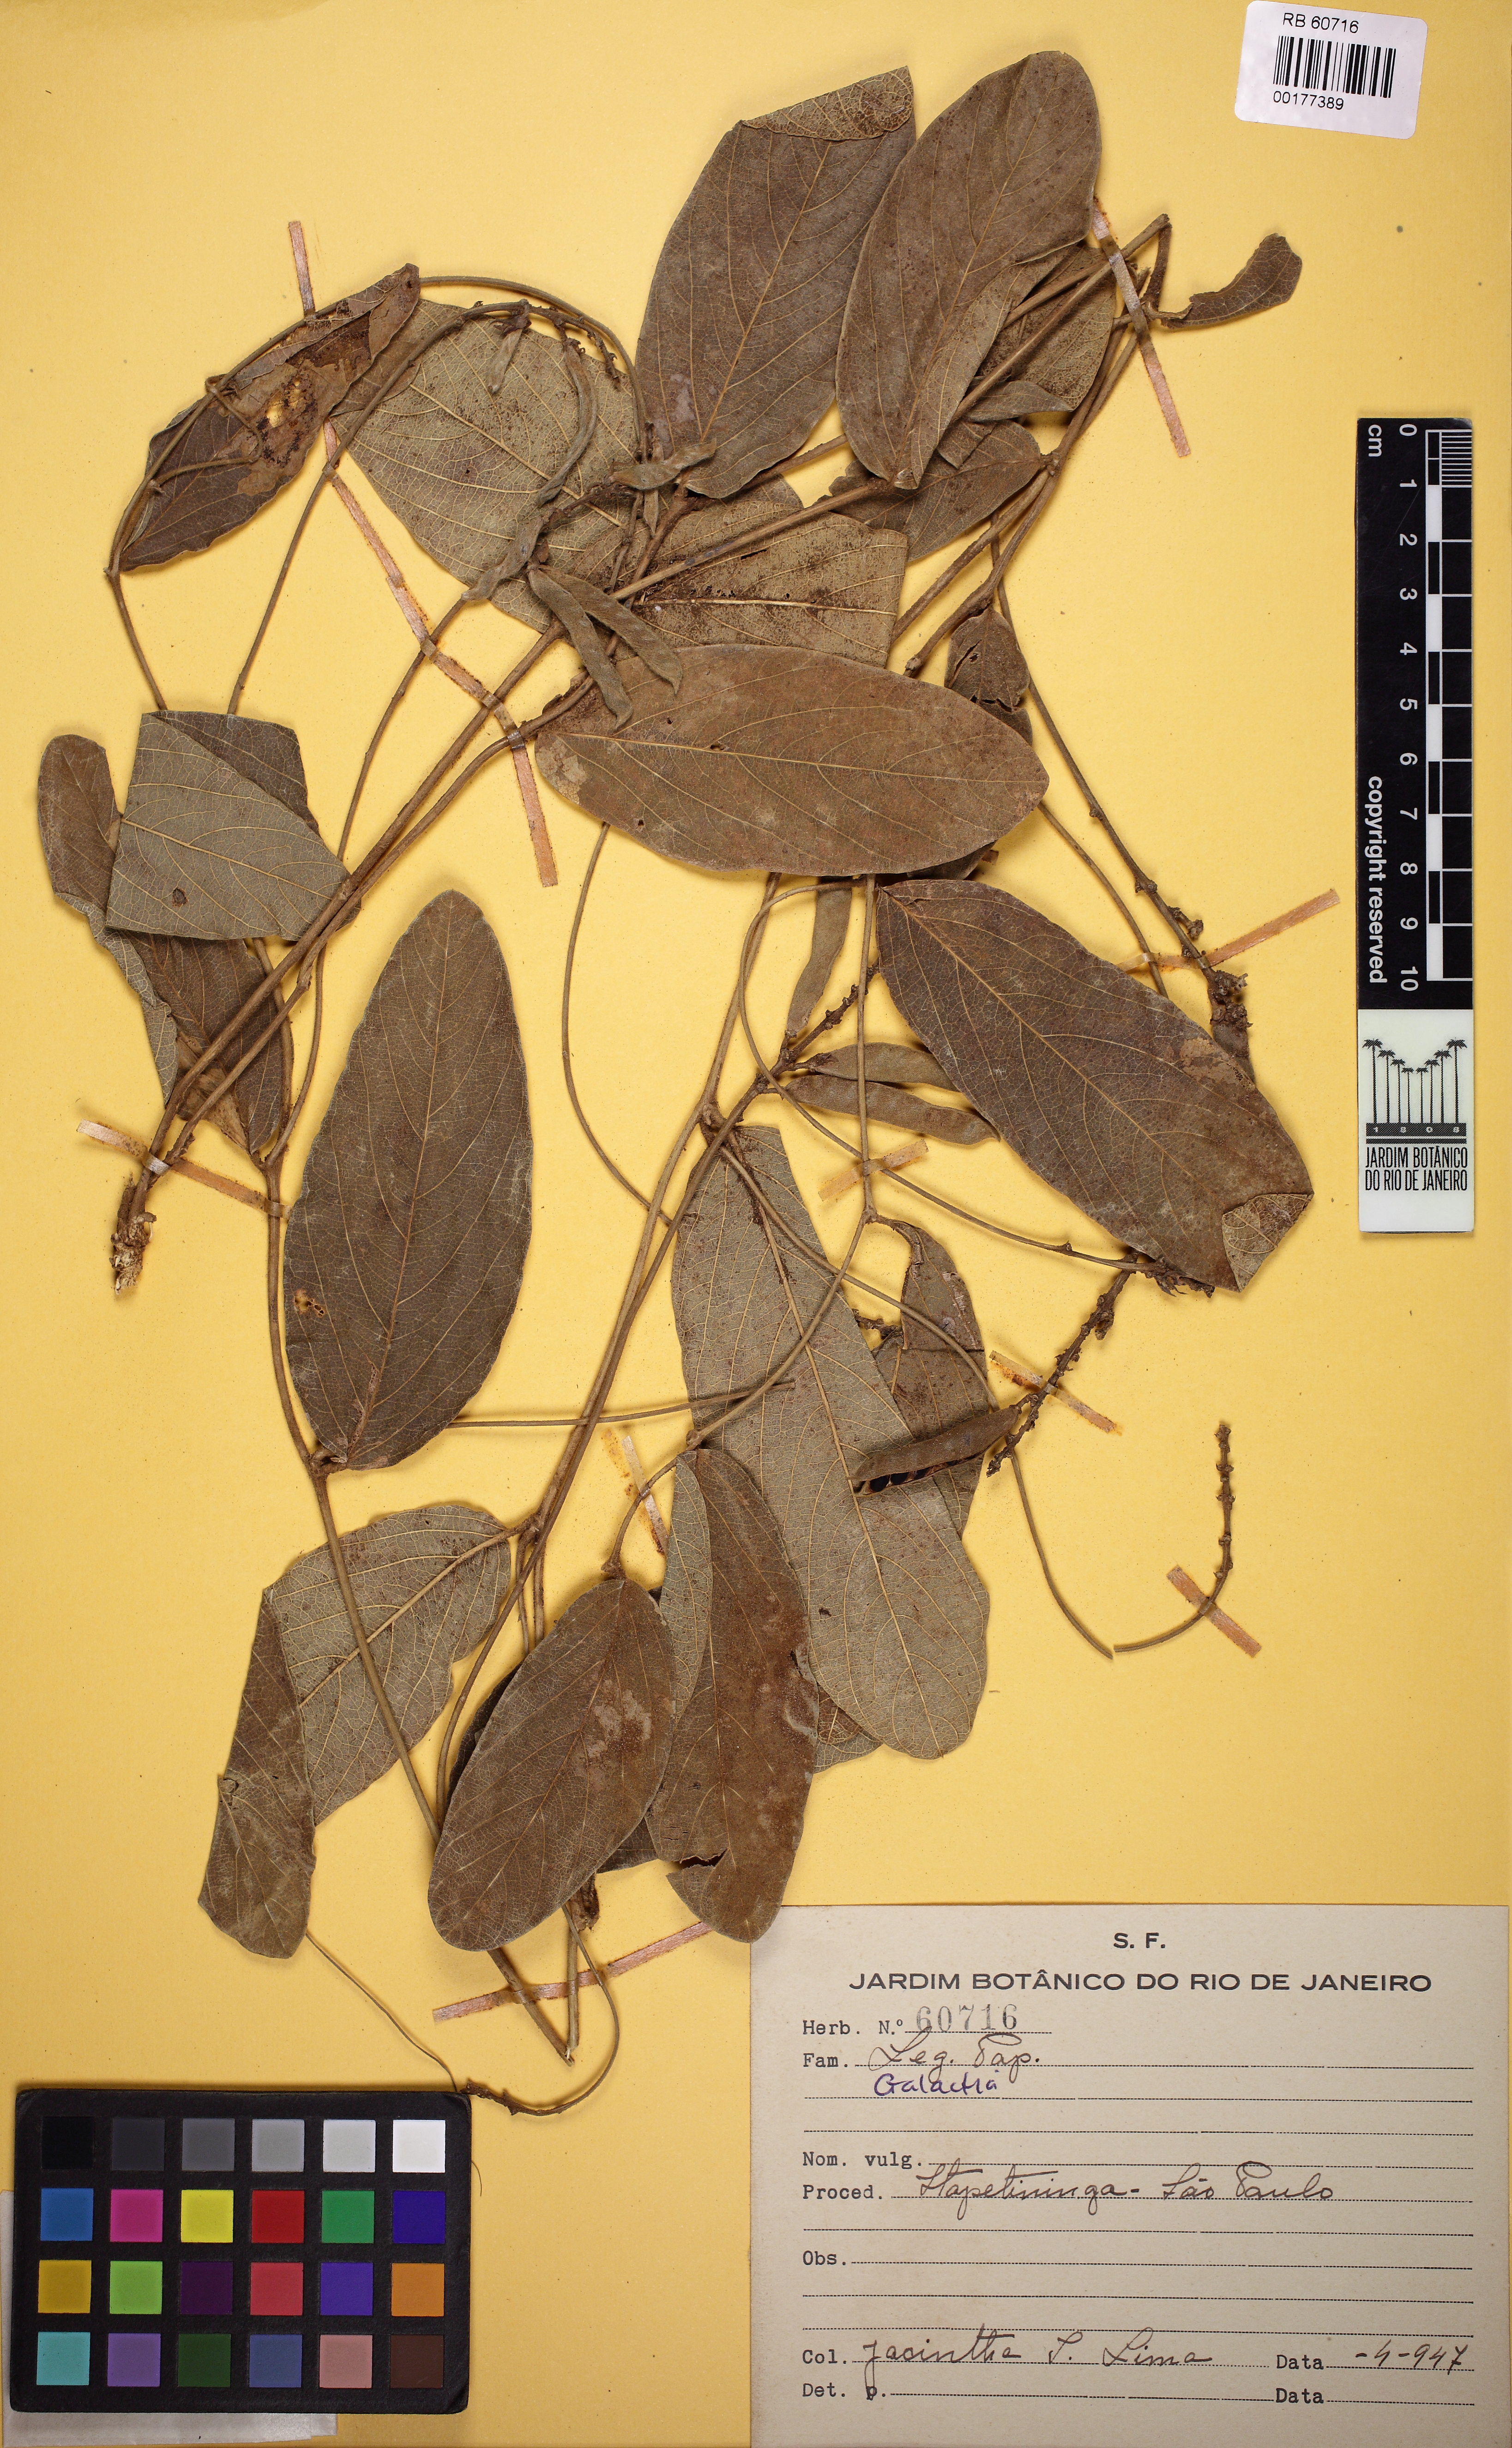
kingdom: Plantae
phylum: Tracheophyta
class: Magnoliopsida
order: Fabales
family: Fabaceae
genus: Cerradicola
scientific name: Cerradicola decumbens
